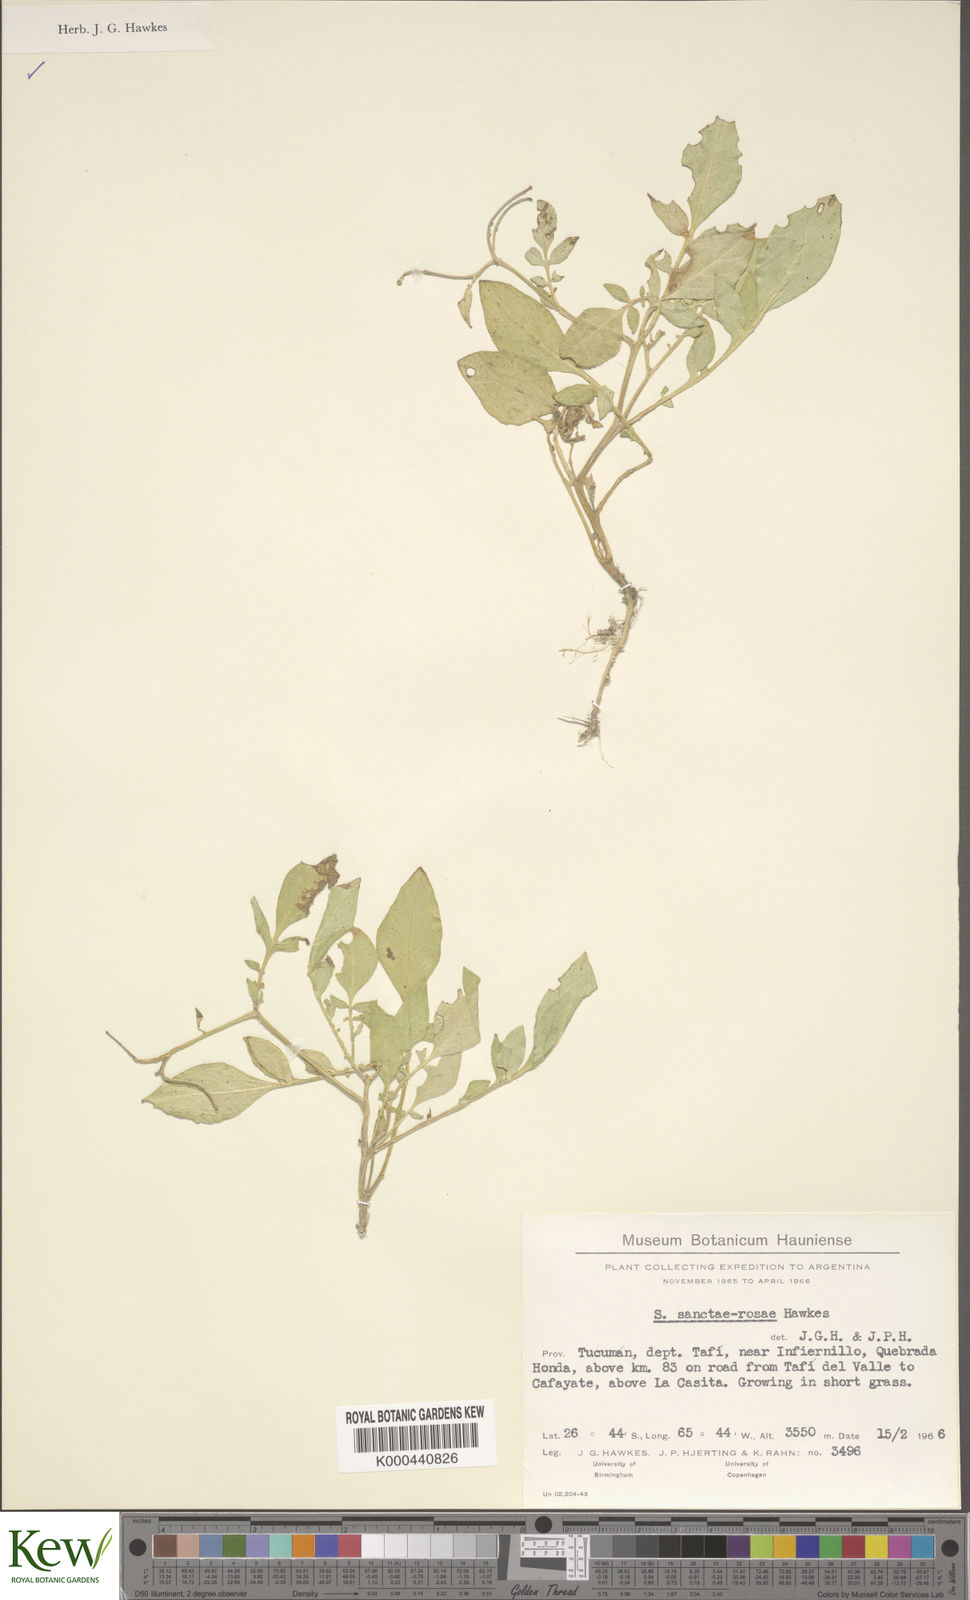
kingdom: Plantae
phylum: Tracheophyta
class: Magnoliopsida
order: Solanales
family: Solanaceae
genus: Solanum
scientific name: Solanum boliviense
